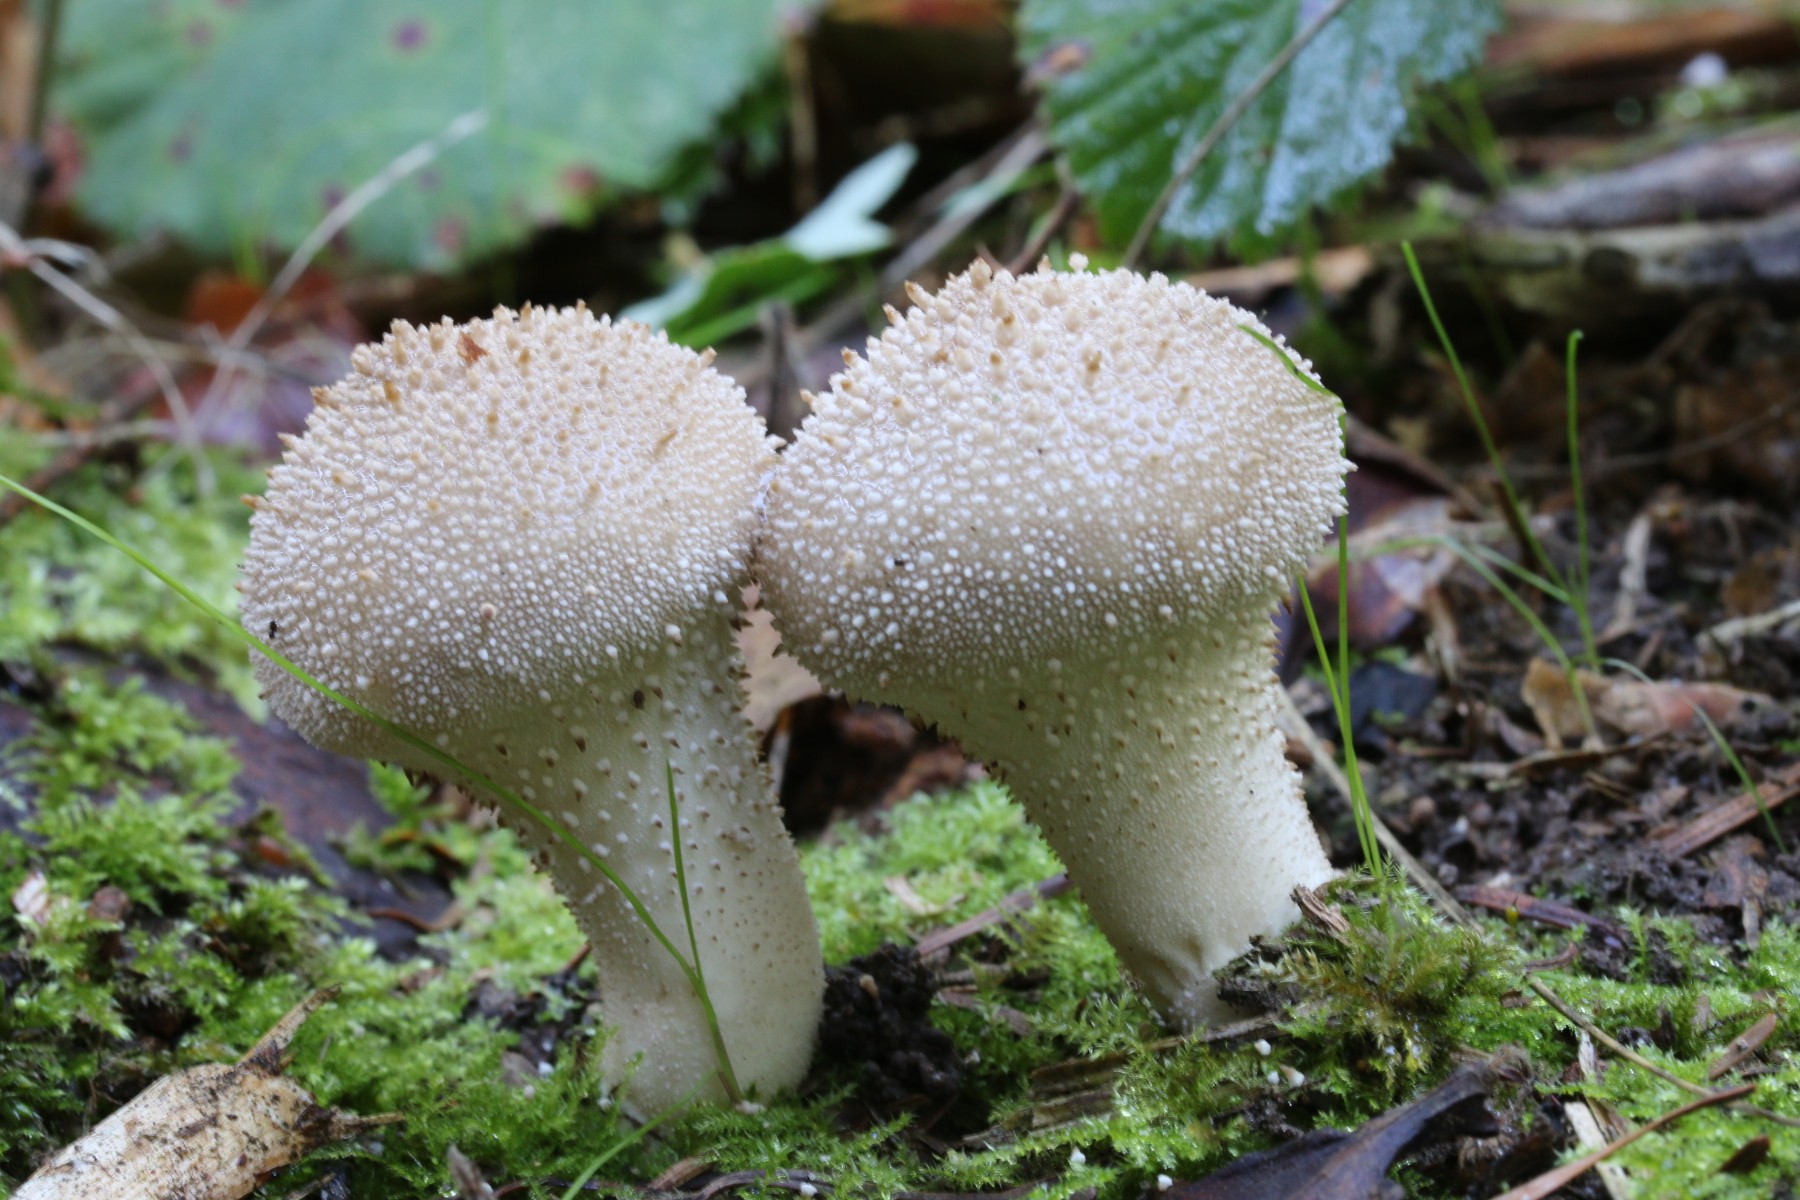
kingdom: Fungi
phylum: Basidiomycota
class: Agaricomycetes
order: Agaricales
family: Lycoperdaceae
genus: Lycoperdon
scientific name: Lycoperdon perlatum
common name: krystal-støvbold
